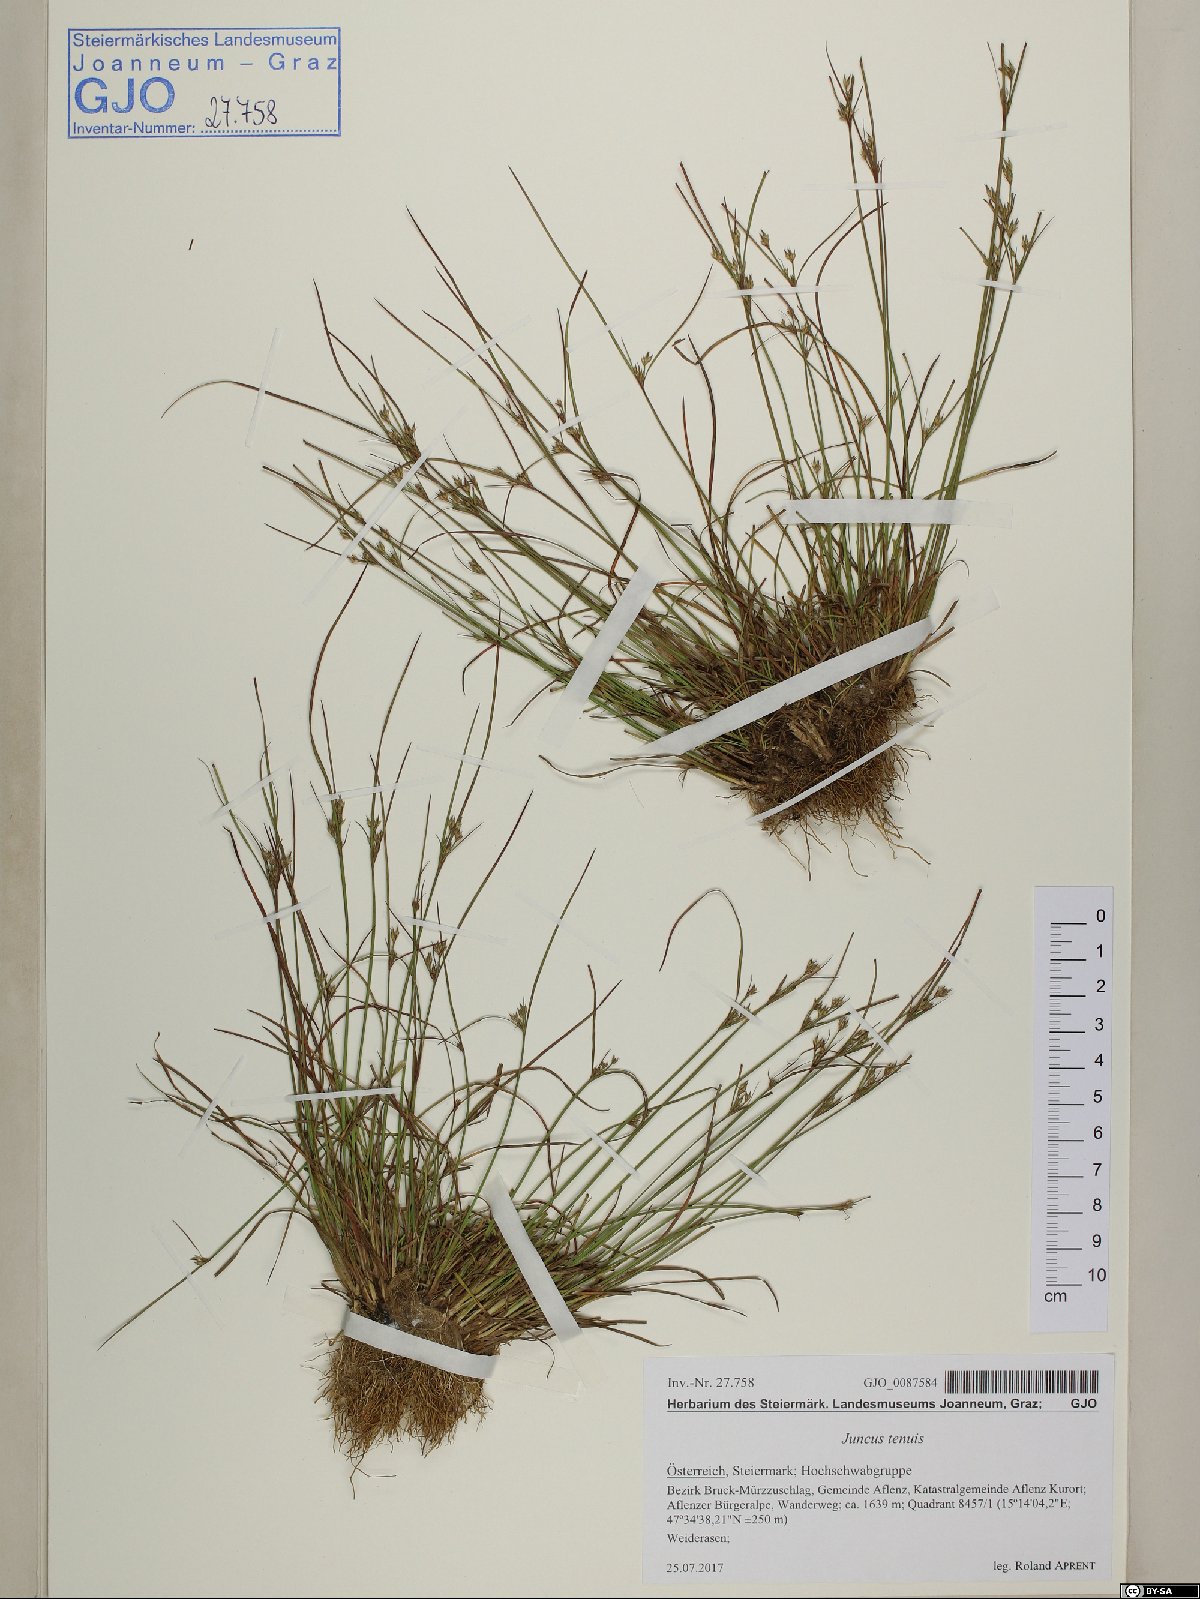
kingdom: Plantae
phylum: Tracheophyta
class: Liliopsida
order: Poales
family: Juncaceae
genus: Juncus
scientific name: Juncus tenuis
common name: Slender rush
